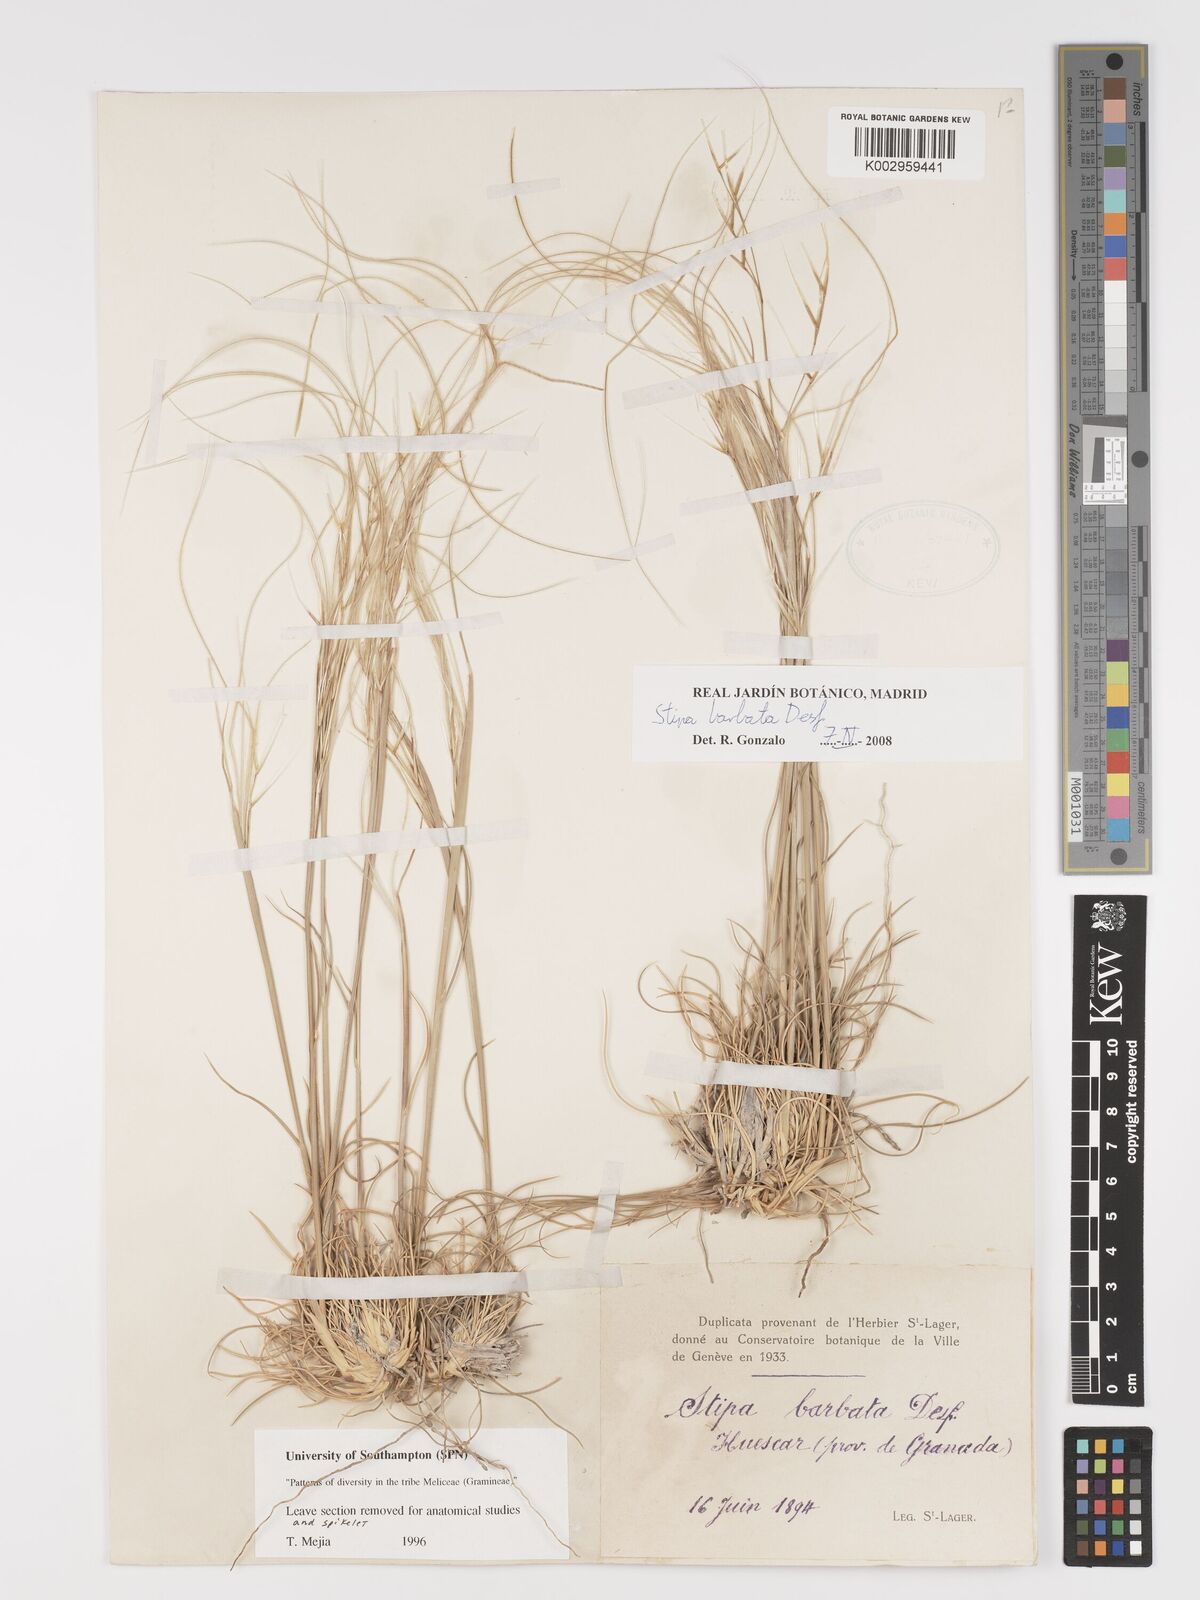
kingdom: Plantae
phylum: Tracheophyta
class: Liliopsida
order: Poales
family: Poaceae
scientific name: Poaceae
